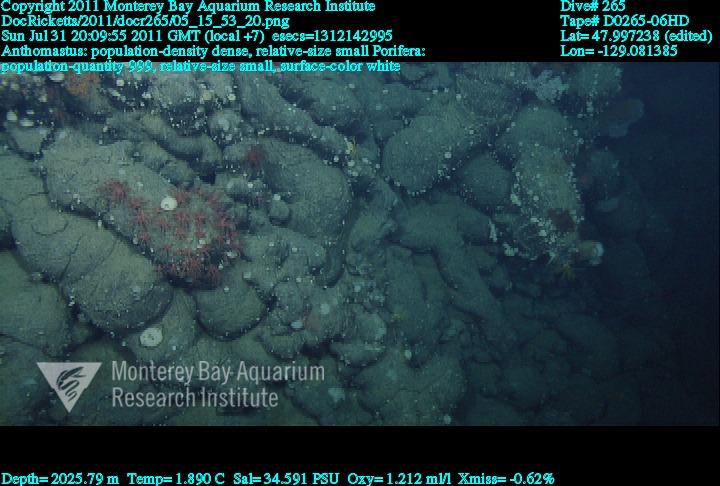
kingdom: Animalia
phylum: Porifera
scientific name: Porifera
